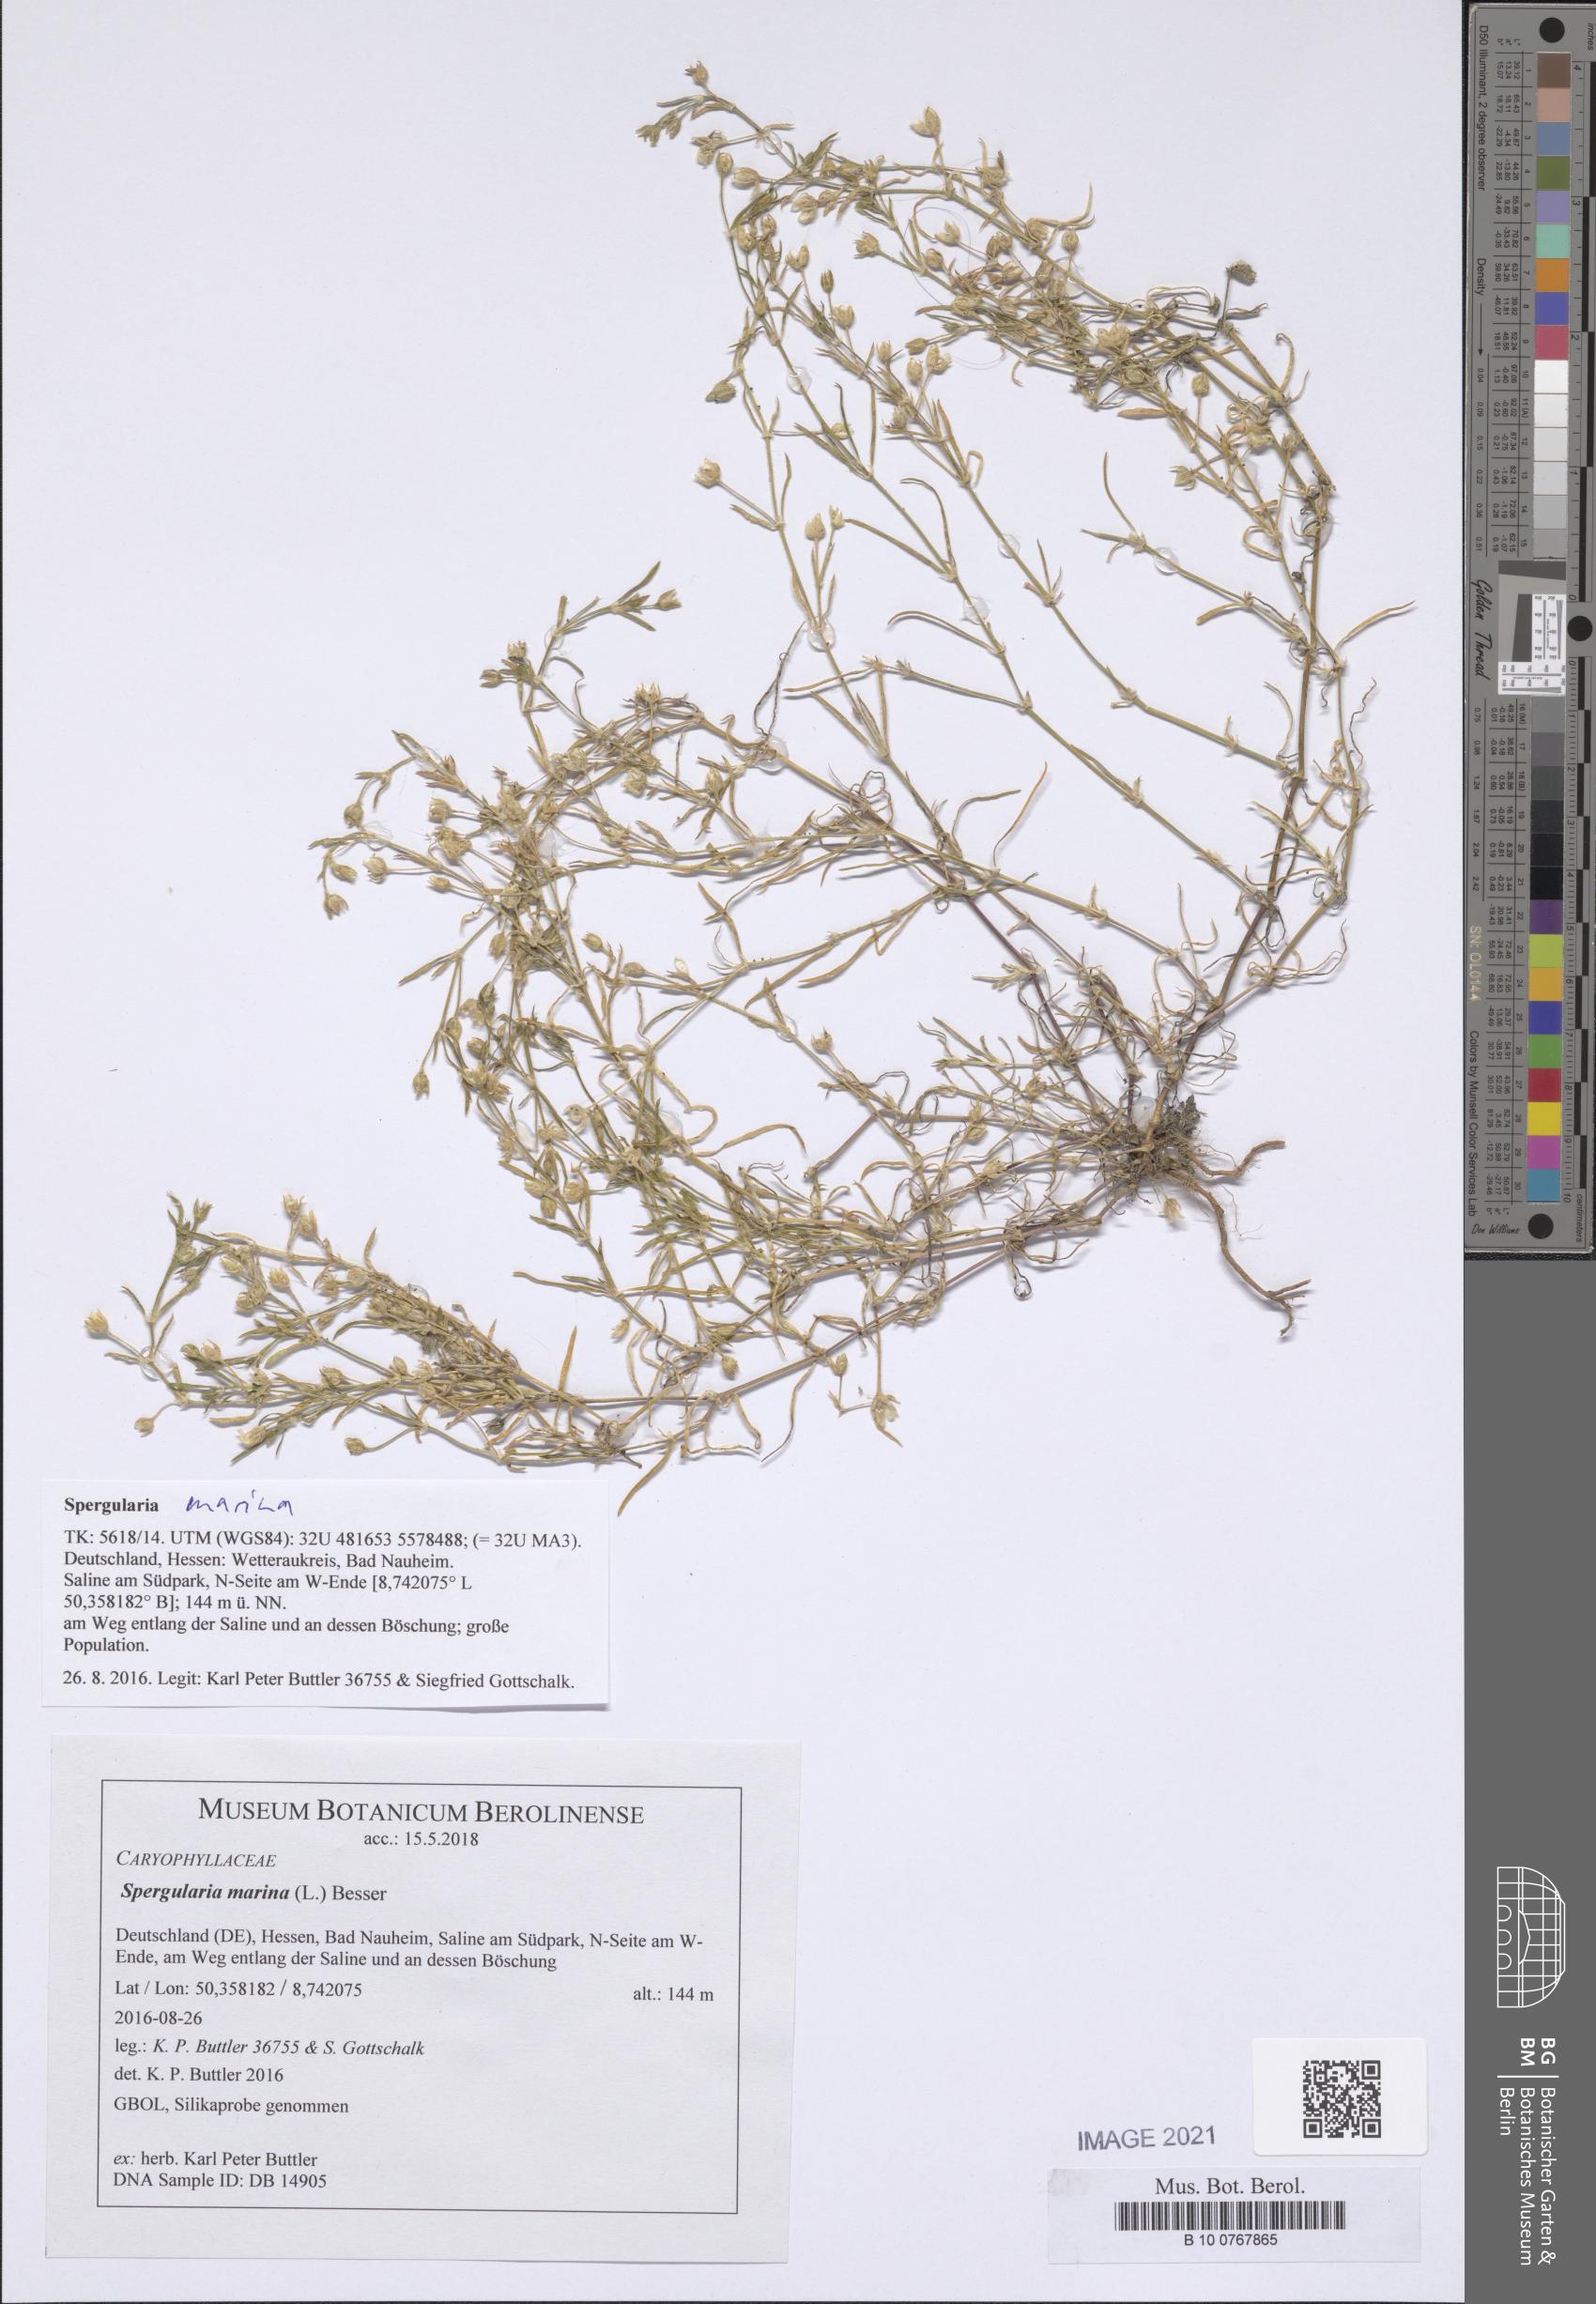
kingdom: Plantae
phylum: Tracheophyta
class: Magnoliopsida
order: Caryophyllales
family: Caryophyllaceae
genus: Spergularia
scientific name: Spergularia marina
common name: Lesser sea-spurrey
